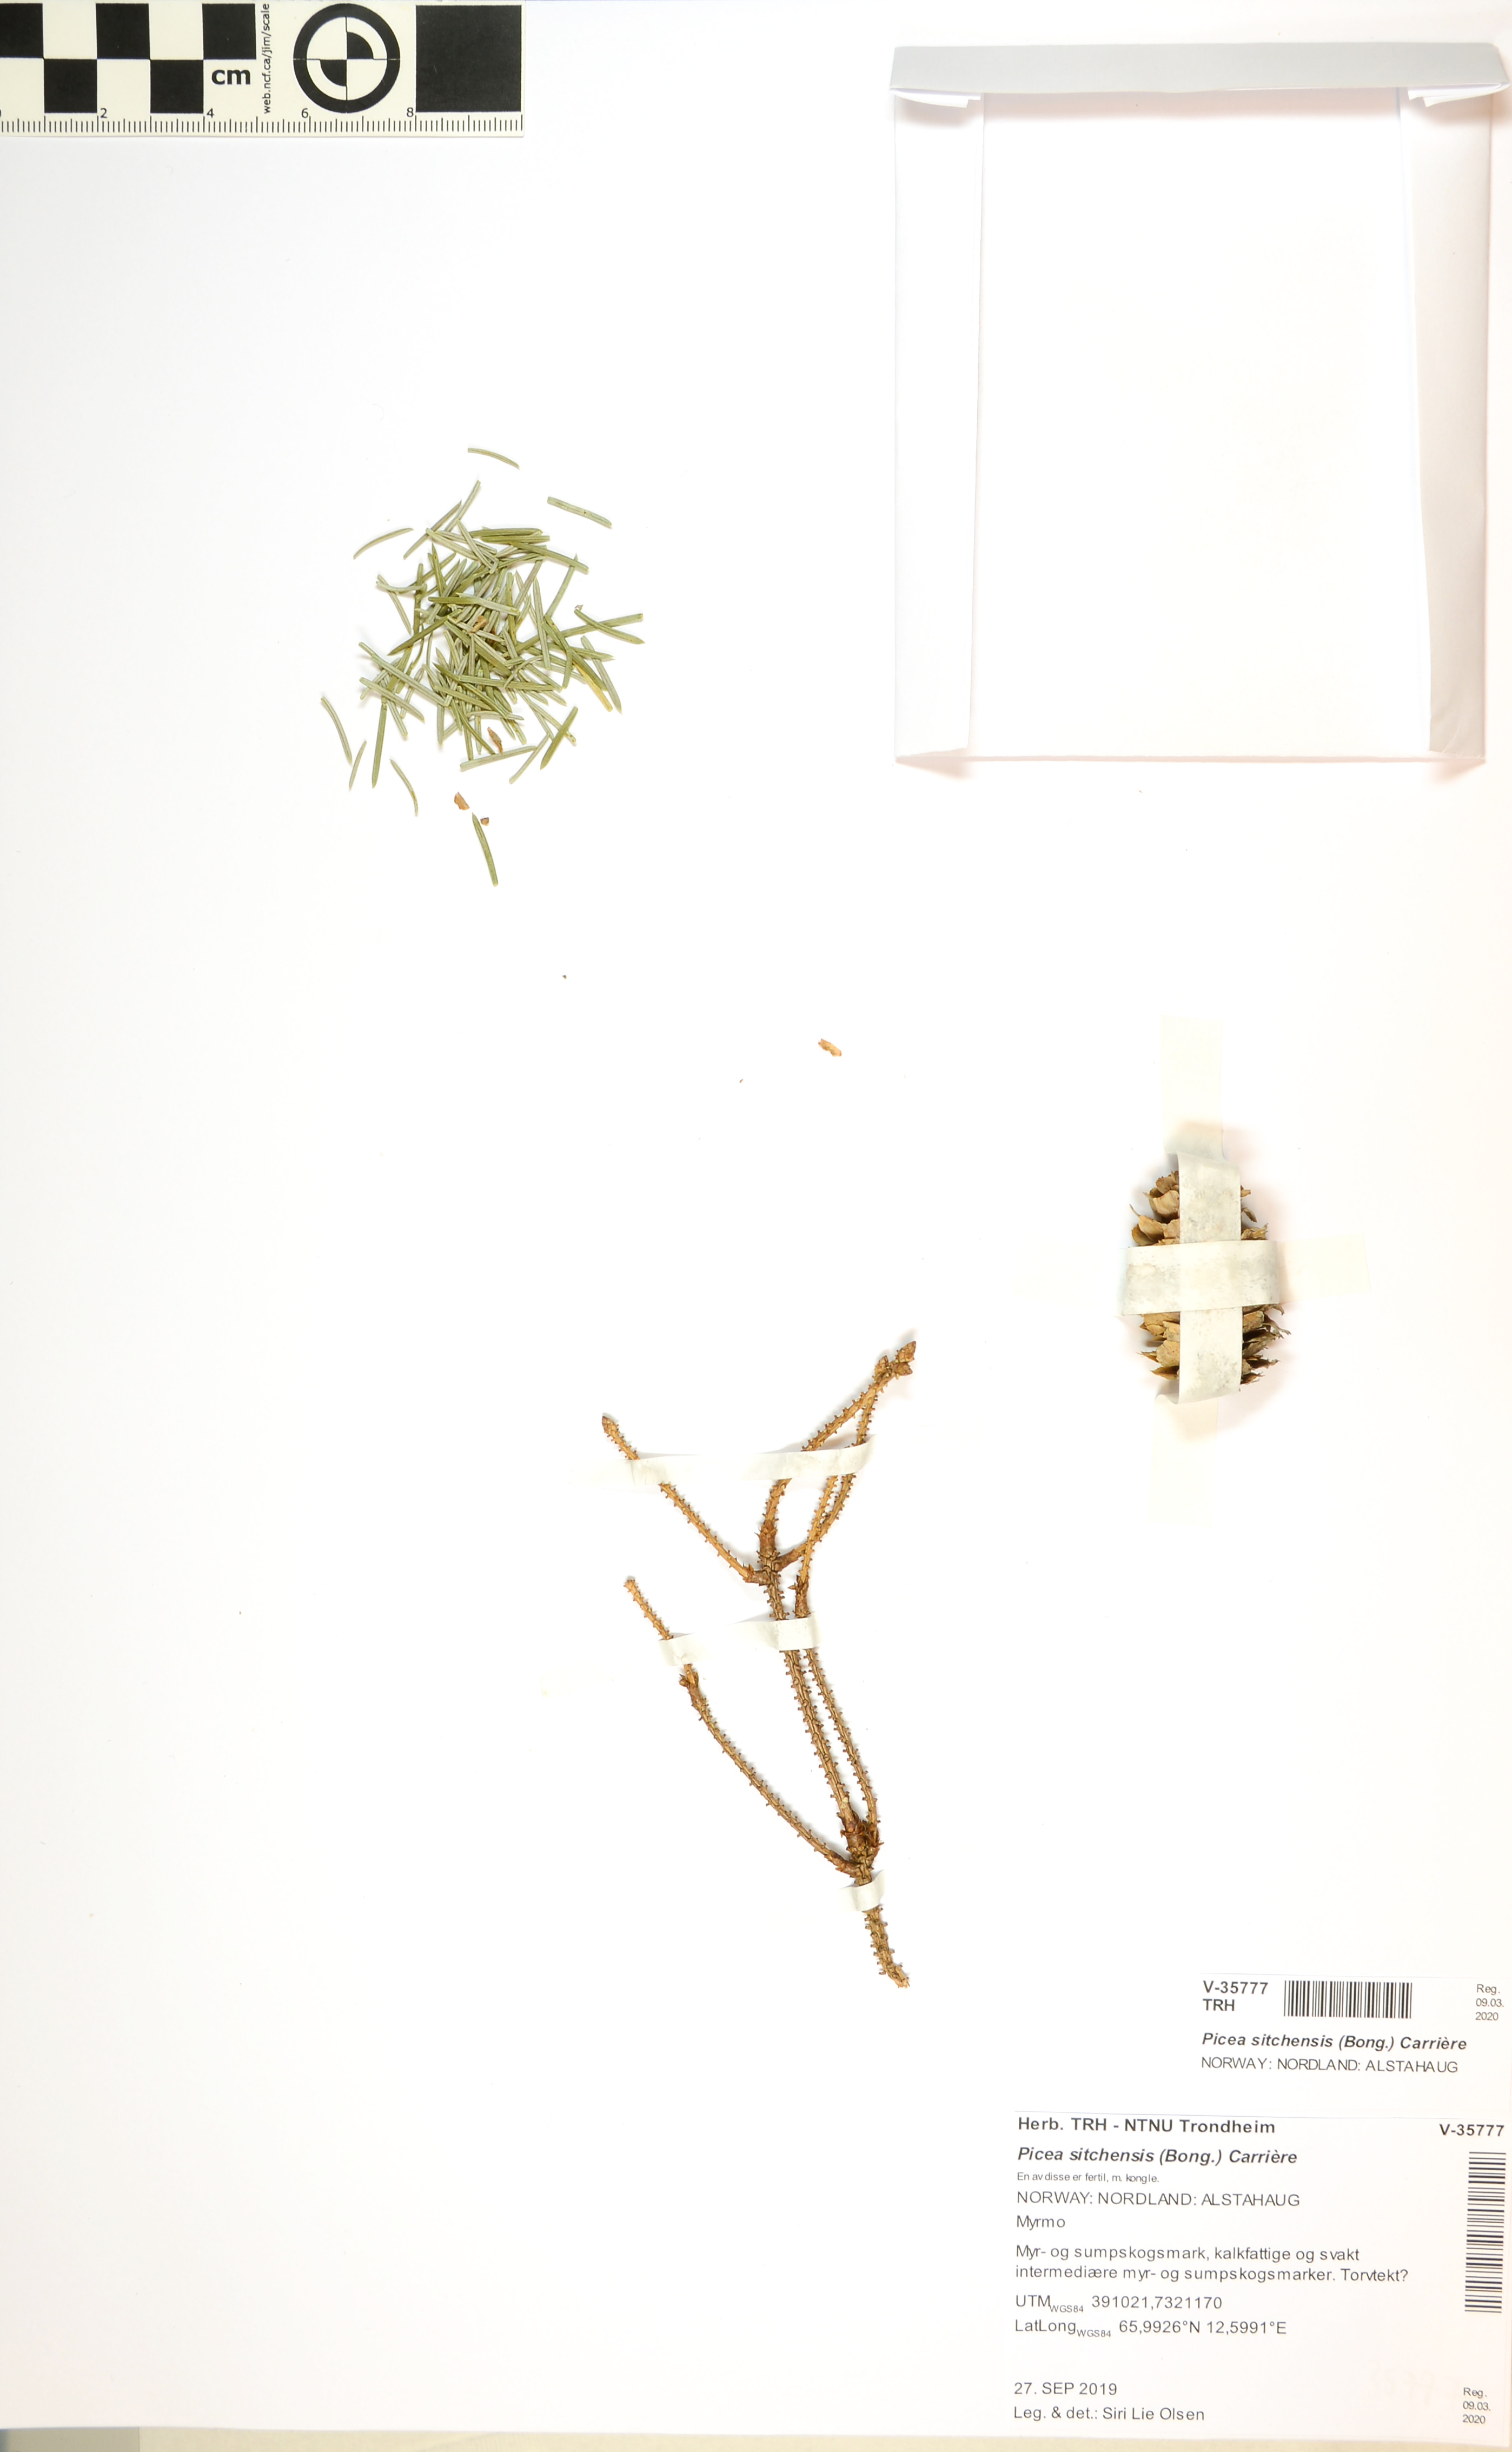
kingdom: Plantae
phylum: Tracheophyta
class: Pinopsida
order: Pinales
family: Pinaceae
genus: Picea
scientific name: Picea sitchensis
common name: Sitka spruce
